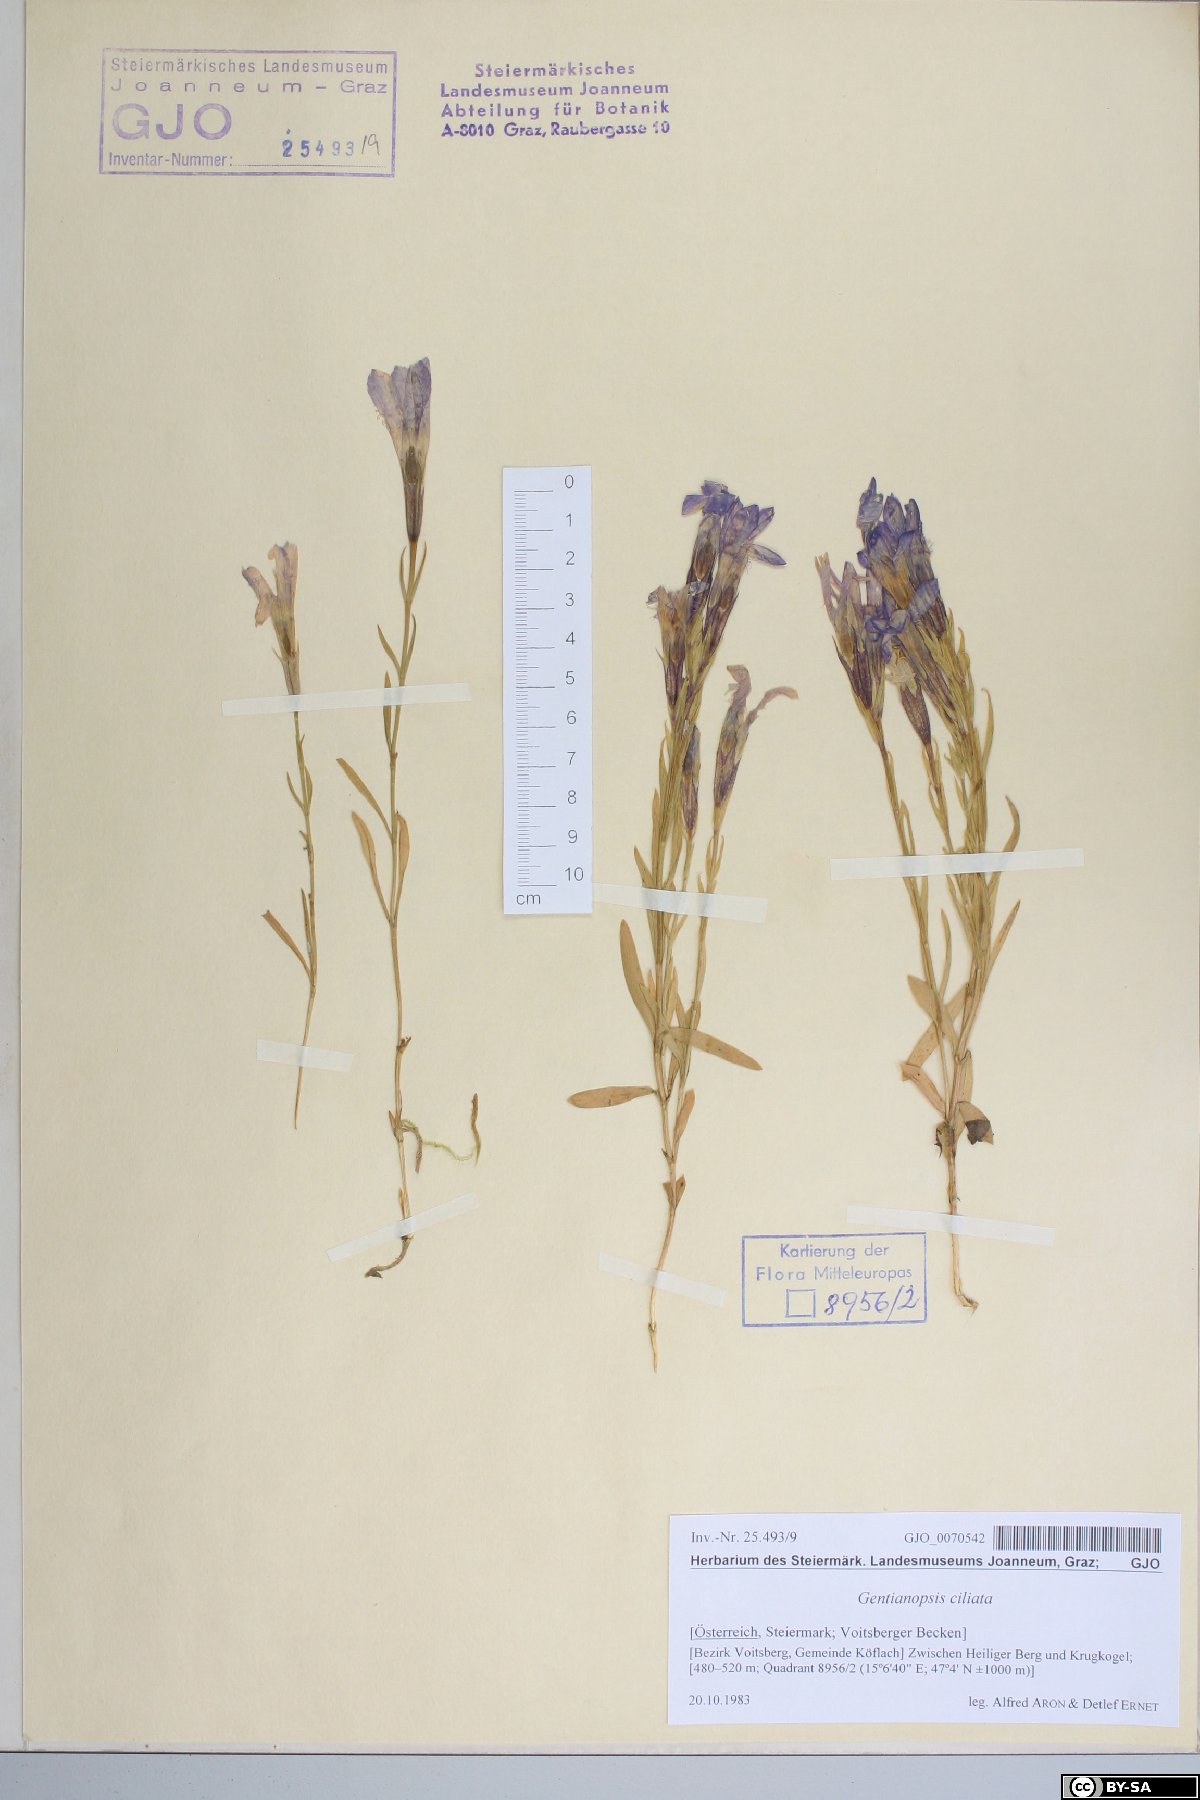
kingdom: Plantae
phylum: Tracheophyta
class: Magnoliopsida
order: Gentianales
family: Gentianaceae
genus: Gentianopsis
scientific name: Gentianopsis ciliata
